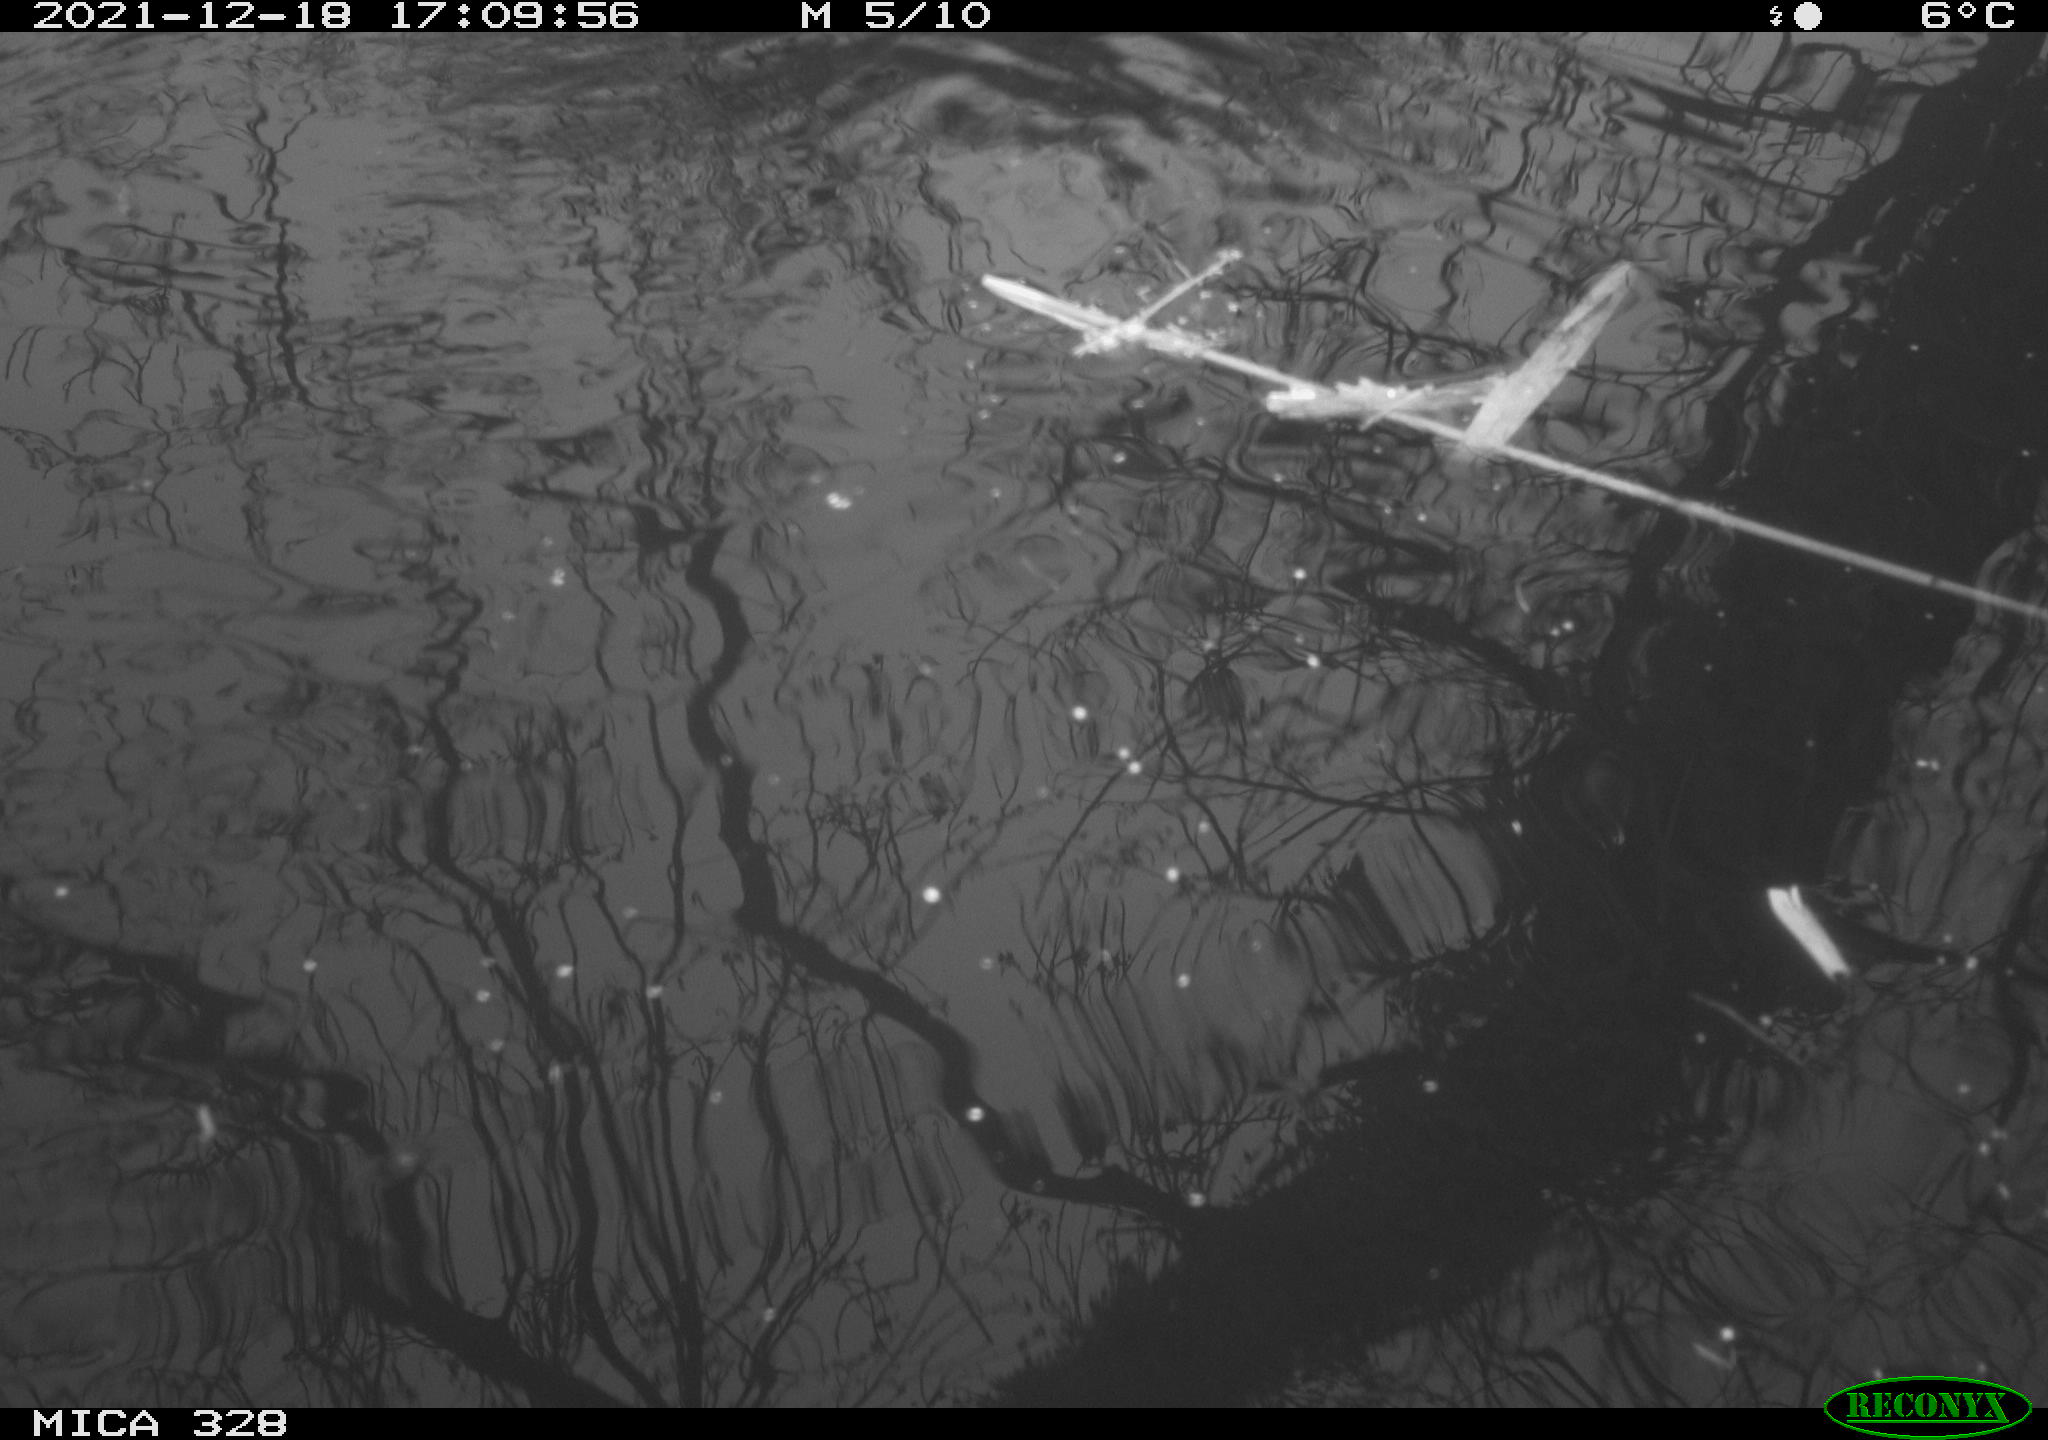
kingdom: Animalia
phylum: Chordata
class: Aves
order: Gruiformes
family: Rallidae
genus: Gallinula
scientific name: Gallinula chloropus
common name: Common moorhen
